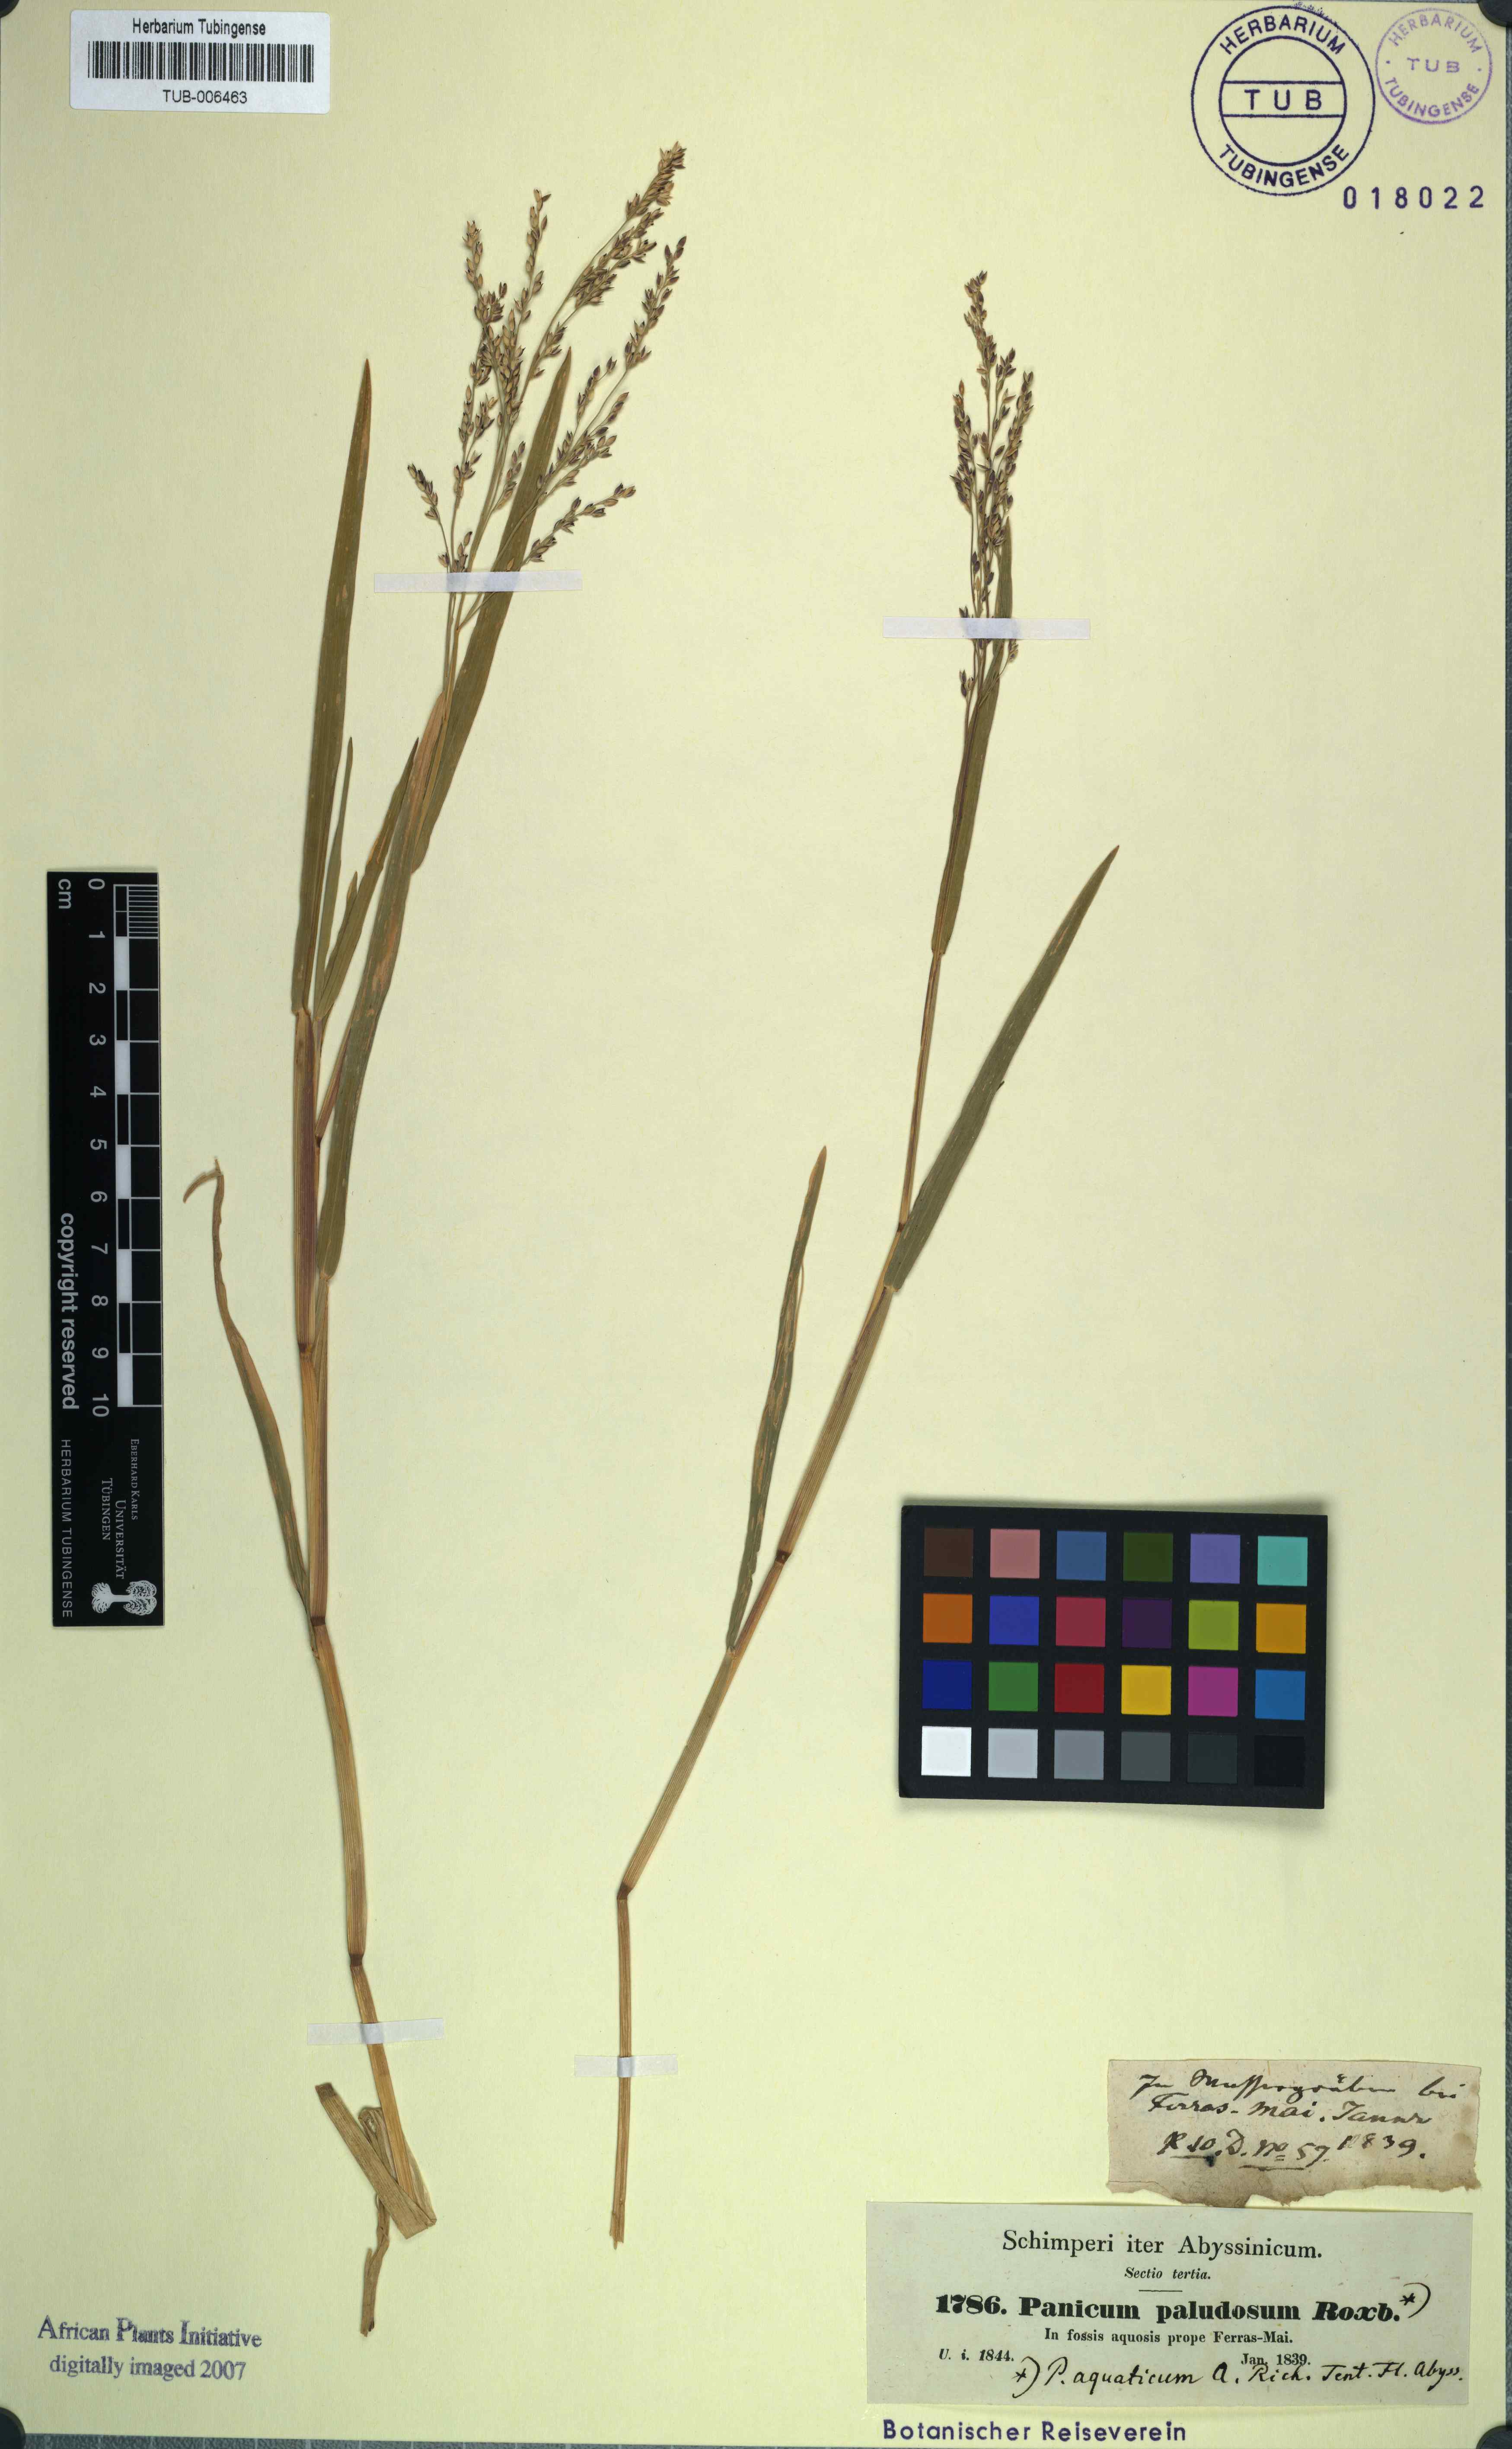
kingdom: Plantae
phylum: Tracheophyta
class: Liliopsida
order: Poales
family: Poaceae
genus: Louisiella
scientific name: Louisiella paludosa
